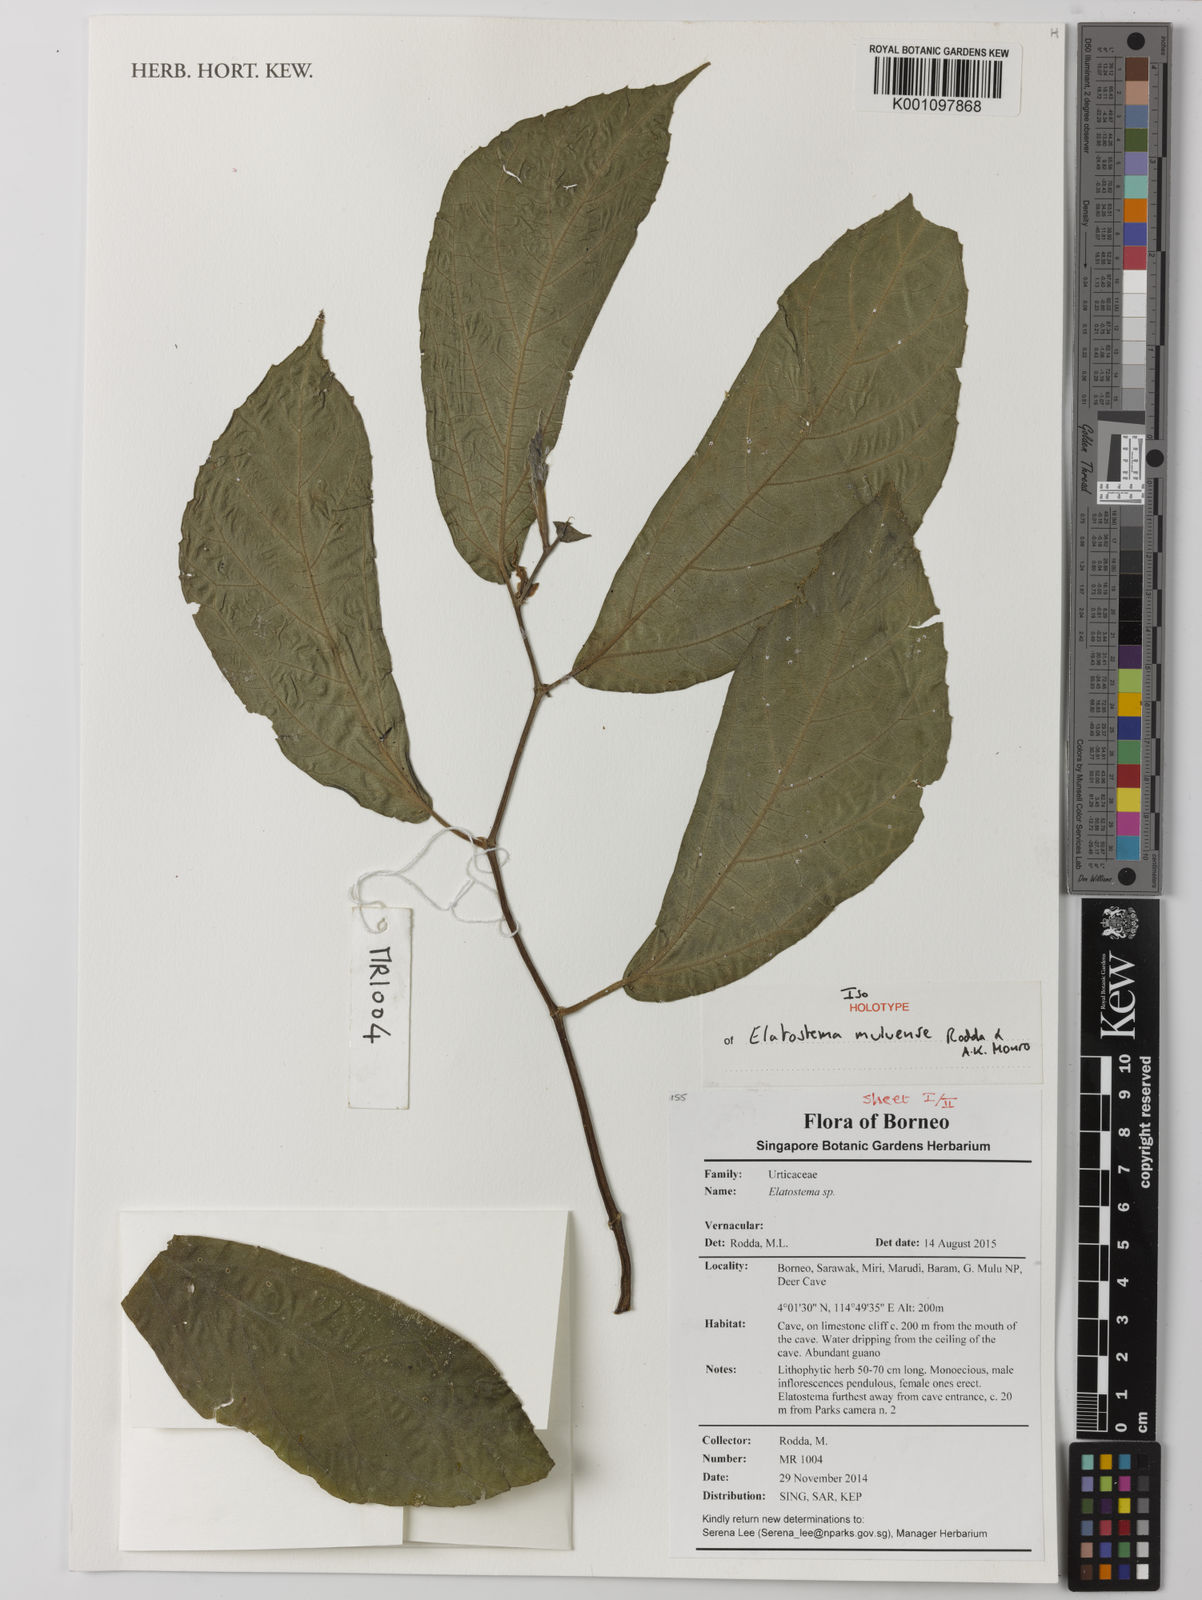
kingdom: Plantae
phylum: Tracheophyta
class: Magnoliopsida
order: Rosales
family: Urticaceae
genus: Elatostema
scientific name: Elatostema muluense
